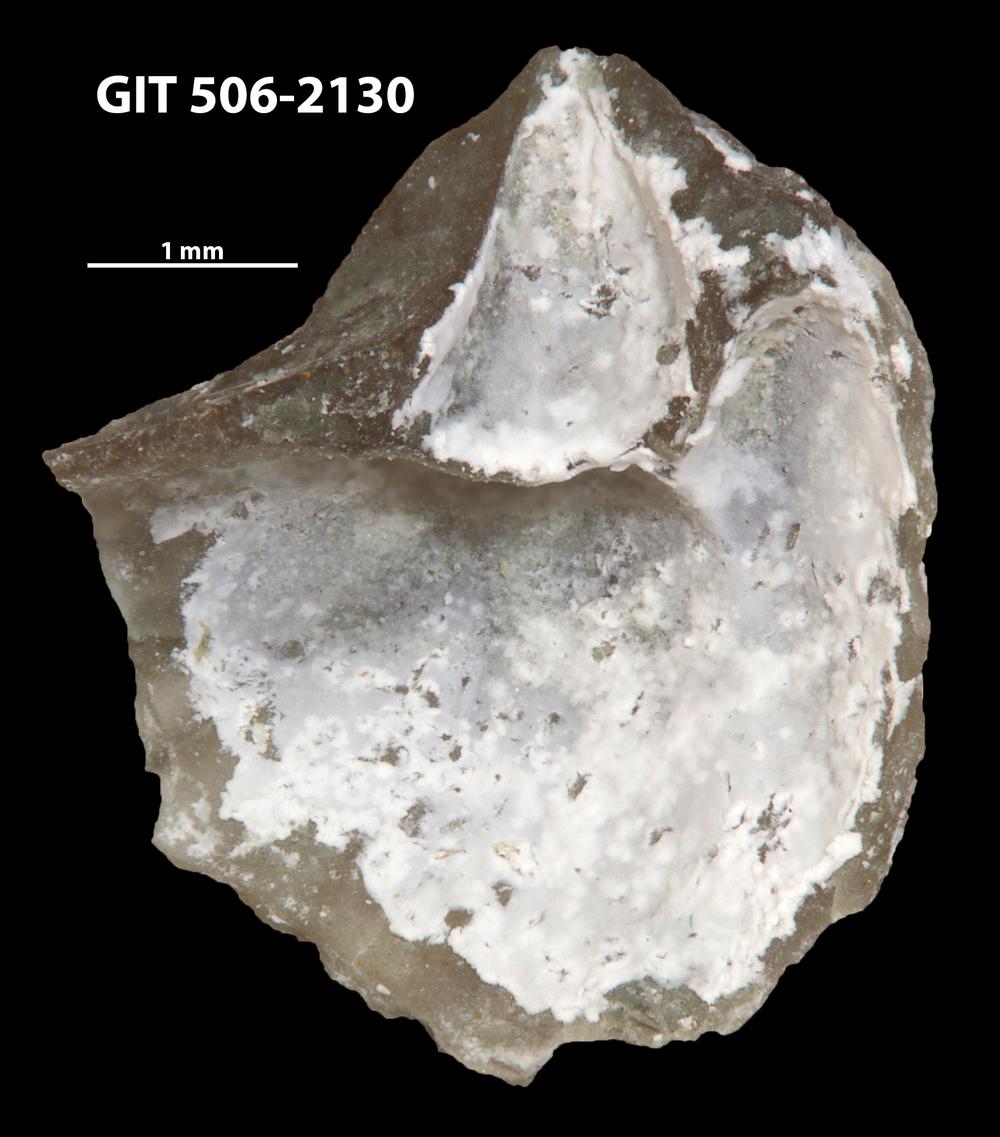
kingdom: Animalia
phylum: Brachiopoda
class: Rhynchonellata
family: Skenidiidae
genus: Skenidioides
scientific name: Skenidioides hymiri
